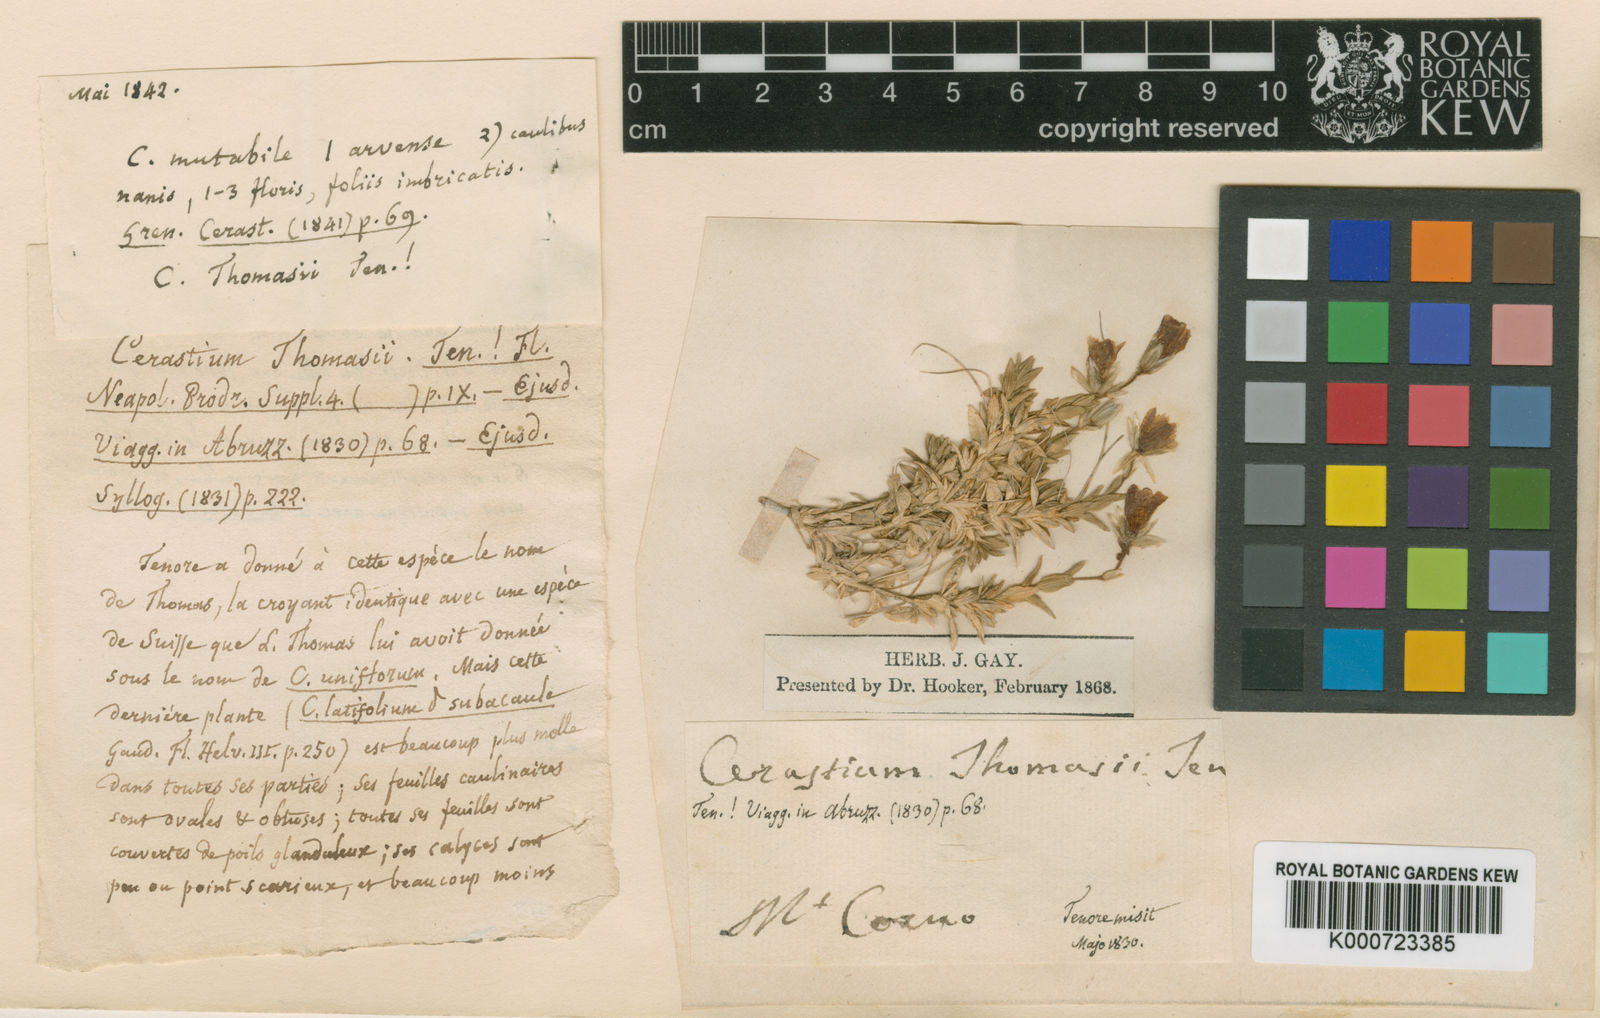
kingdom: Plantae
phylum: Tracheophyta
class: Magnoliopsida
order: Caryophyllales
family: Caryophyllaceae
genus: Cerastium
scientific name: Cerastium arvense
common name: Field mouse-ear
